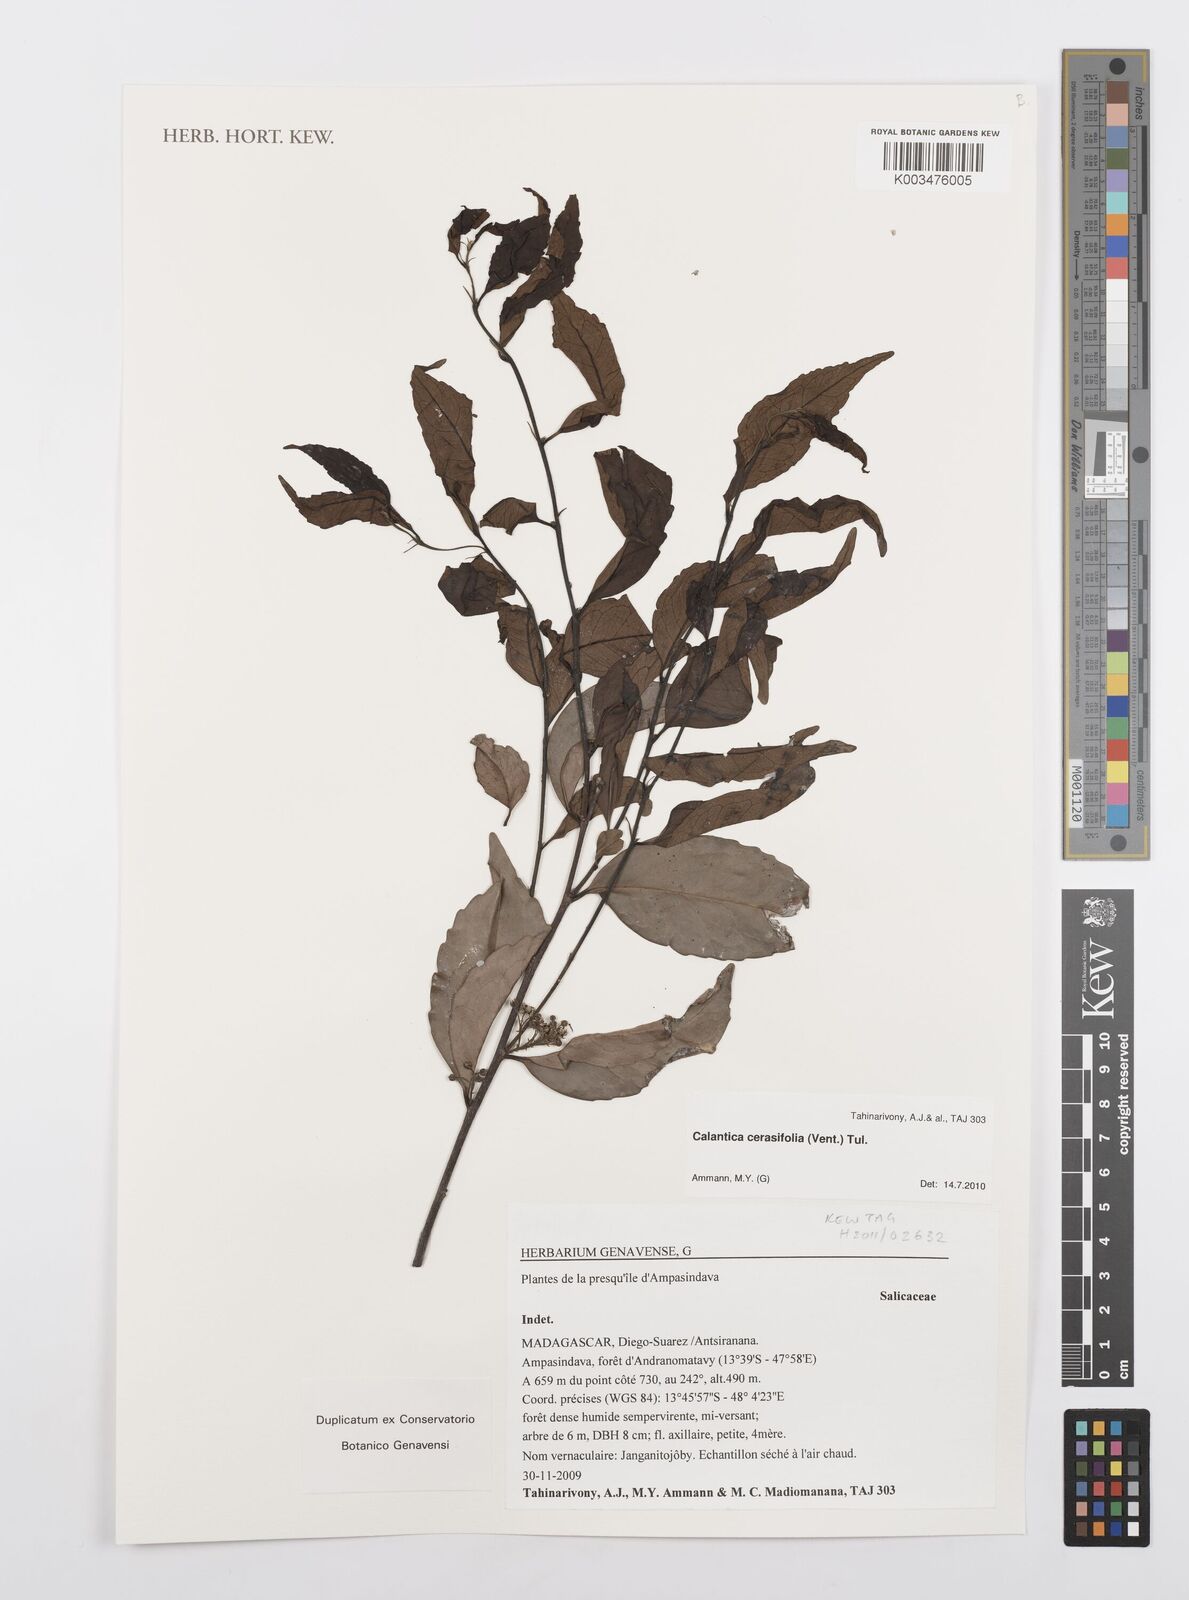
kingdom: Plantae
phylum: Tracheophyta
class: Magnoliopsida
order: Malpighiales
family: Salicaceae
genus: Calantica
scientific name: Calantica cerasifolia
